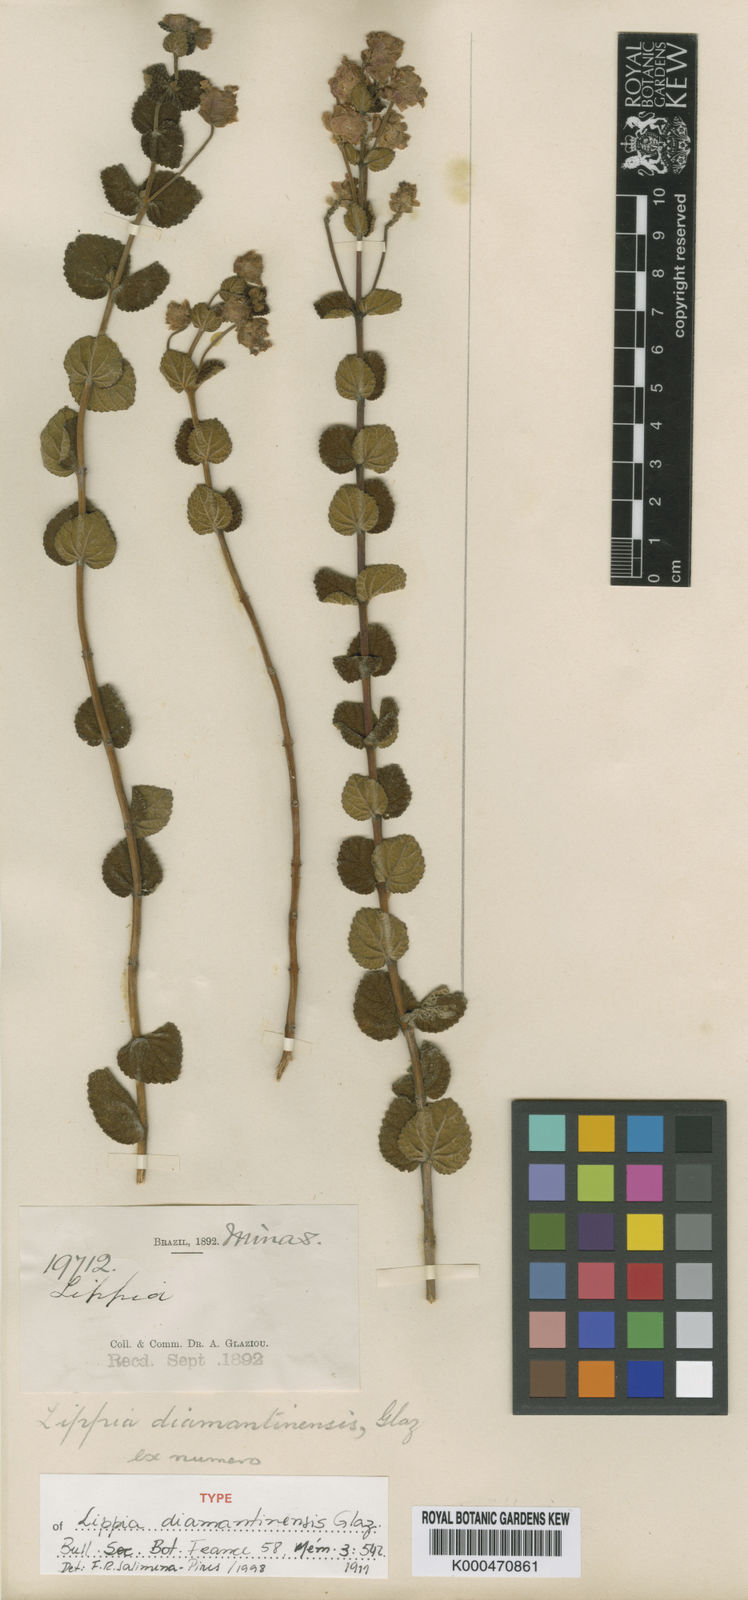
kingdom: Plantae
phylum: Tracheophyta
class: Magnoliopsida
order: Lamiales
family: Verbenaceae
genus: Lippia
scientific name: Lippia diamantinensis
